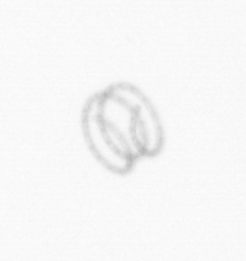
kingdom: Chromista
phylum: Ochrophyta
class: Bacillariophyceae
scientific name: Bacillariophyceae
